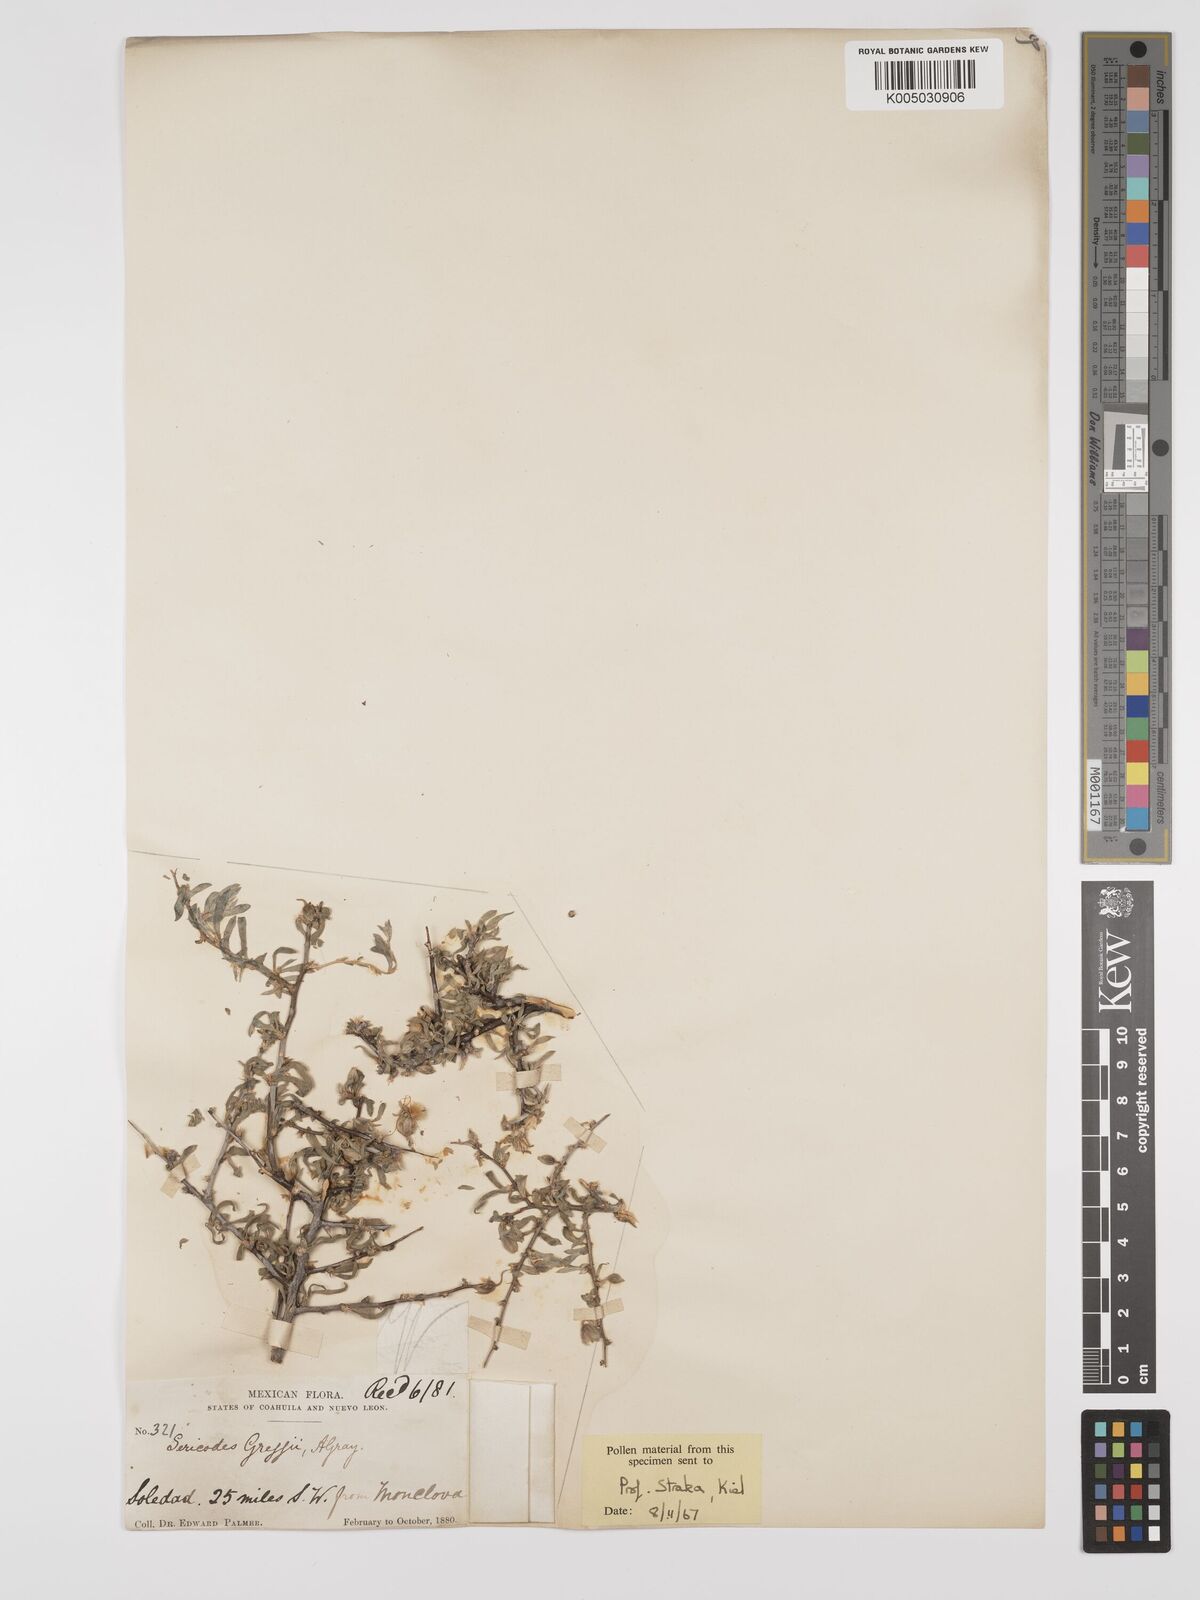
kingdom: Plantae
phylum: Tracheophyta
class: Magnoliopsida
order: Zygophyllales
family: Zygophyllaceae
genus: Sericodes
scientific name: Sericodes greggii
